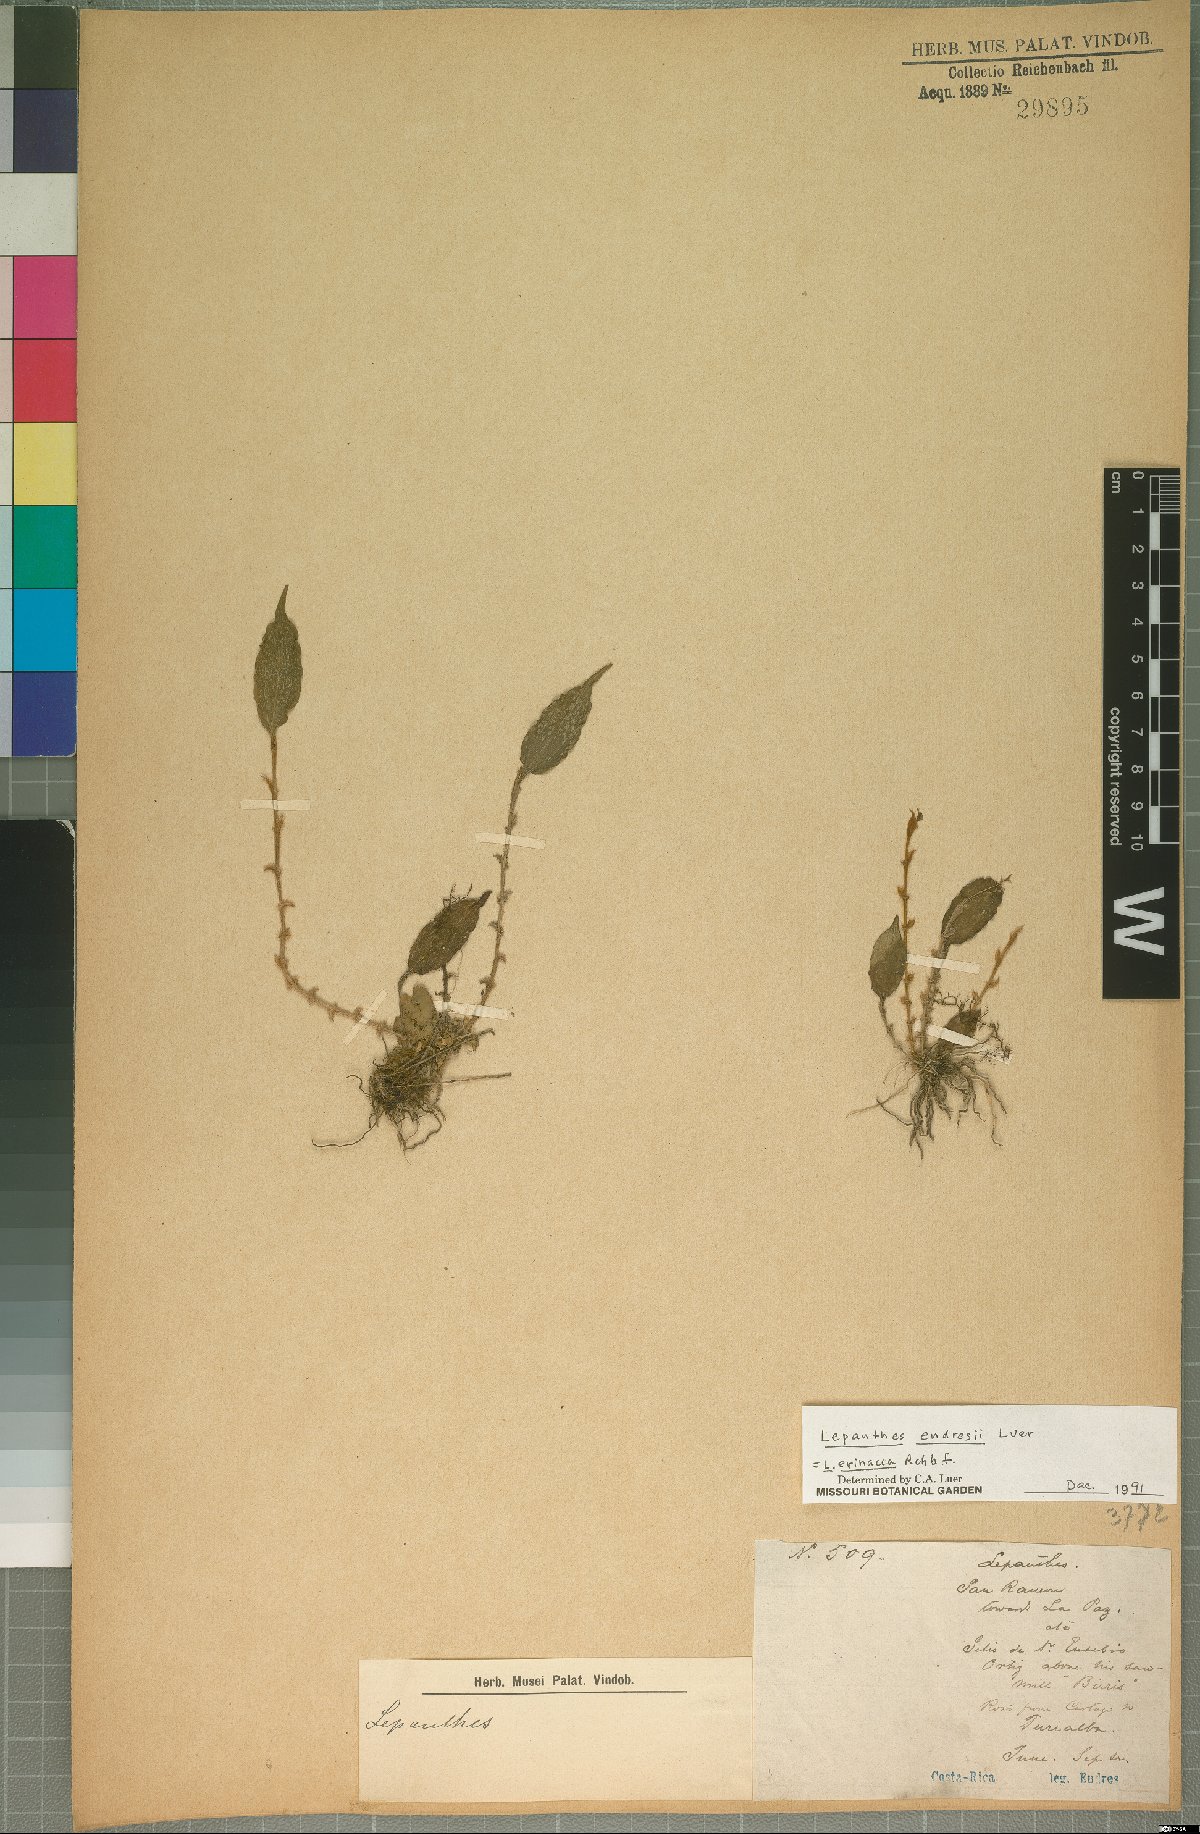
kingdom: Plantae
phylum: Tracheophyta
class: Liliopsida
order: Asparagales
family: Orchidaceae
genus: Lepanthes
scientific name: Lepanthes erinacea
